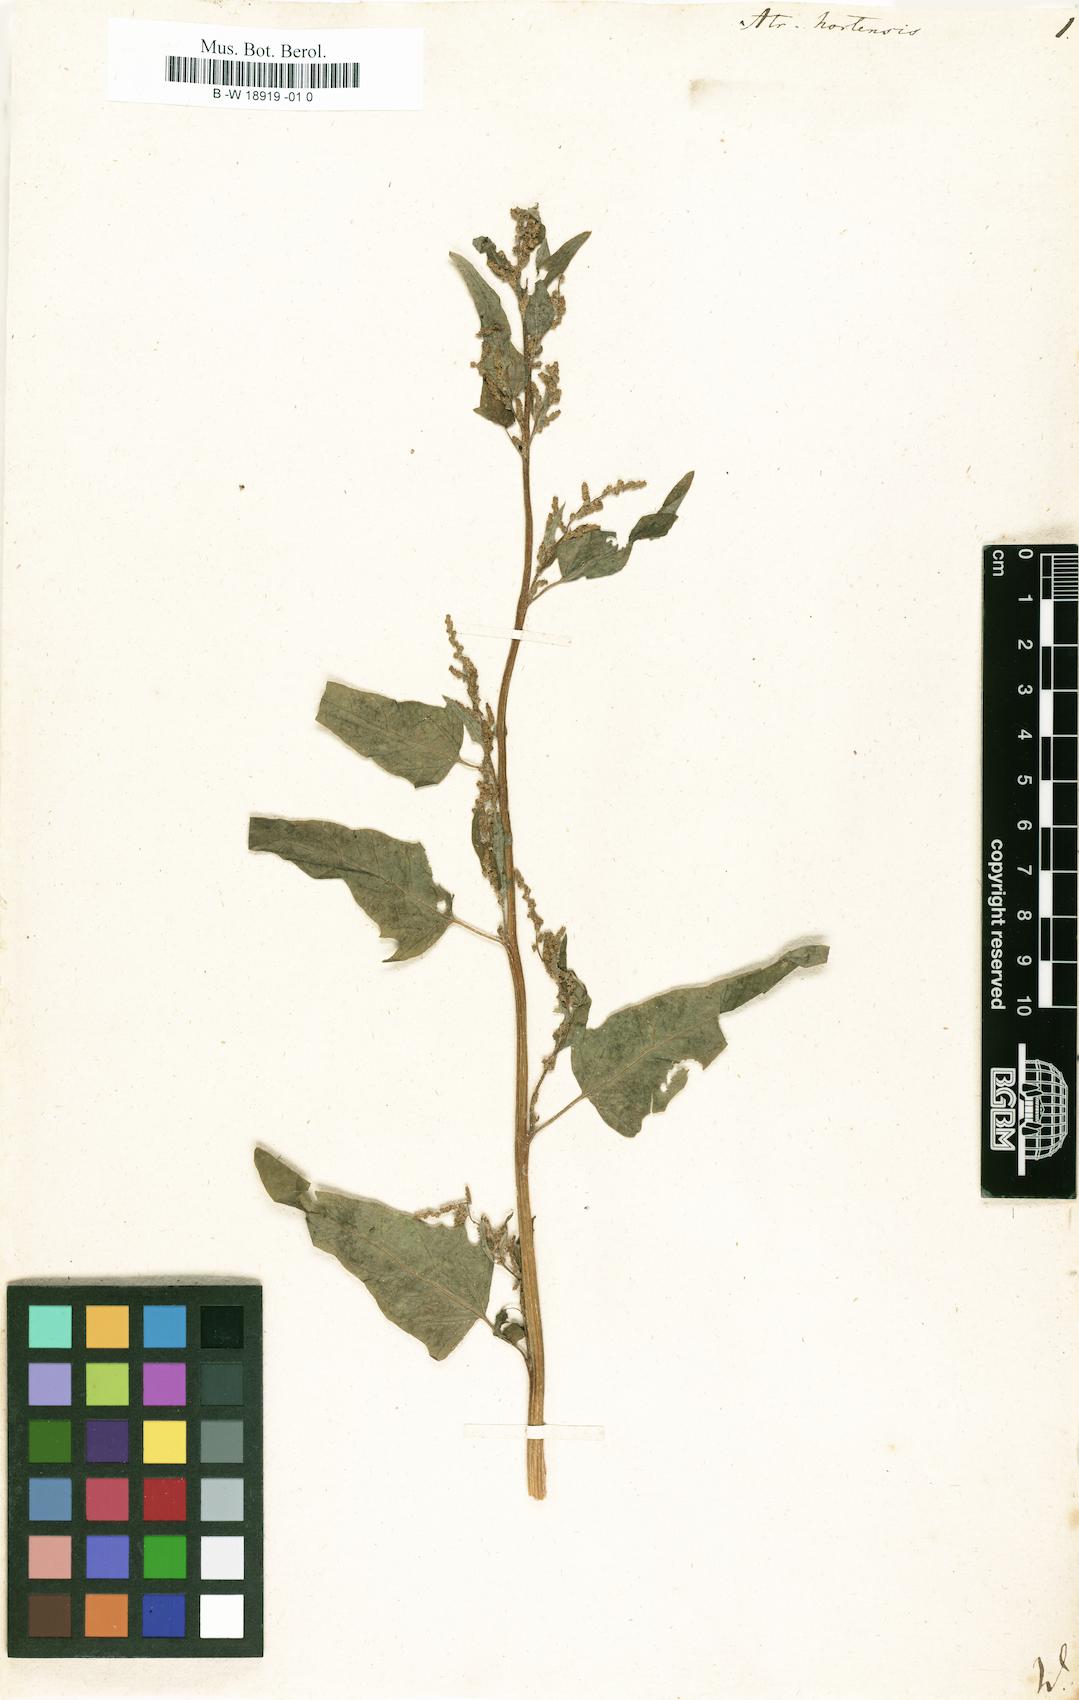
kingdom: Plantae
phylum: Tracheophyta
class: Magnoliopsida
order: Caryophyllales
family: Amaranthaceae
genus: Atriplex
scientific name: Atriplex hortensis
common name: Garden orache
